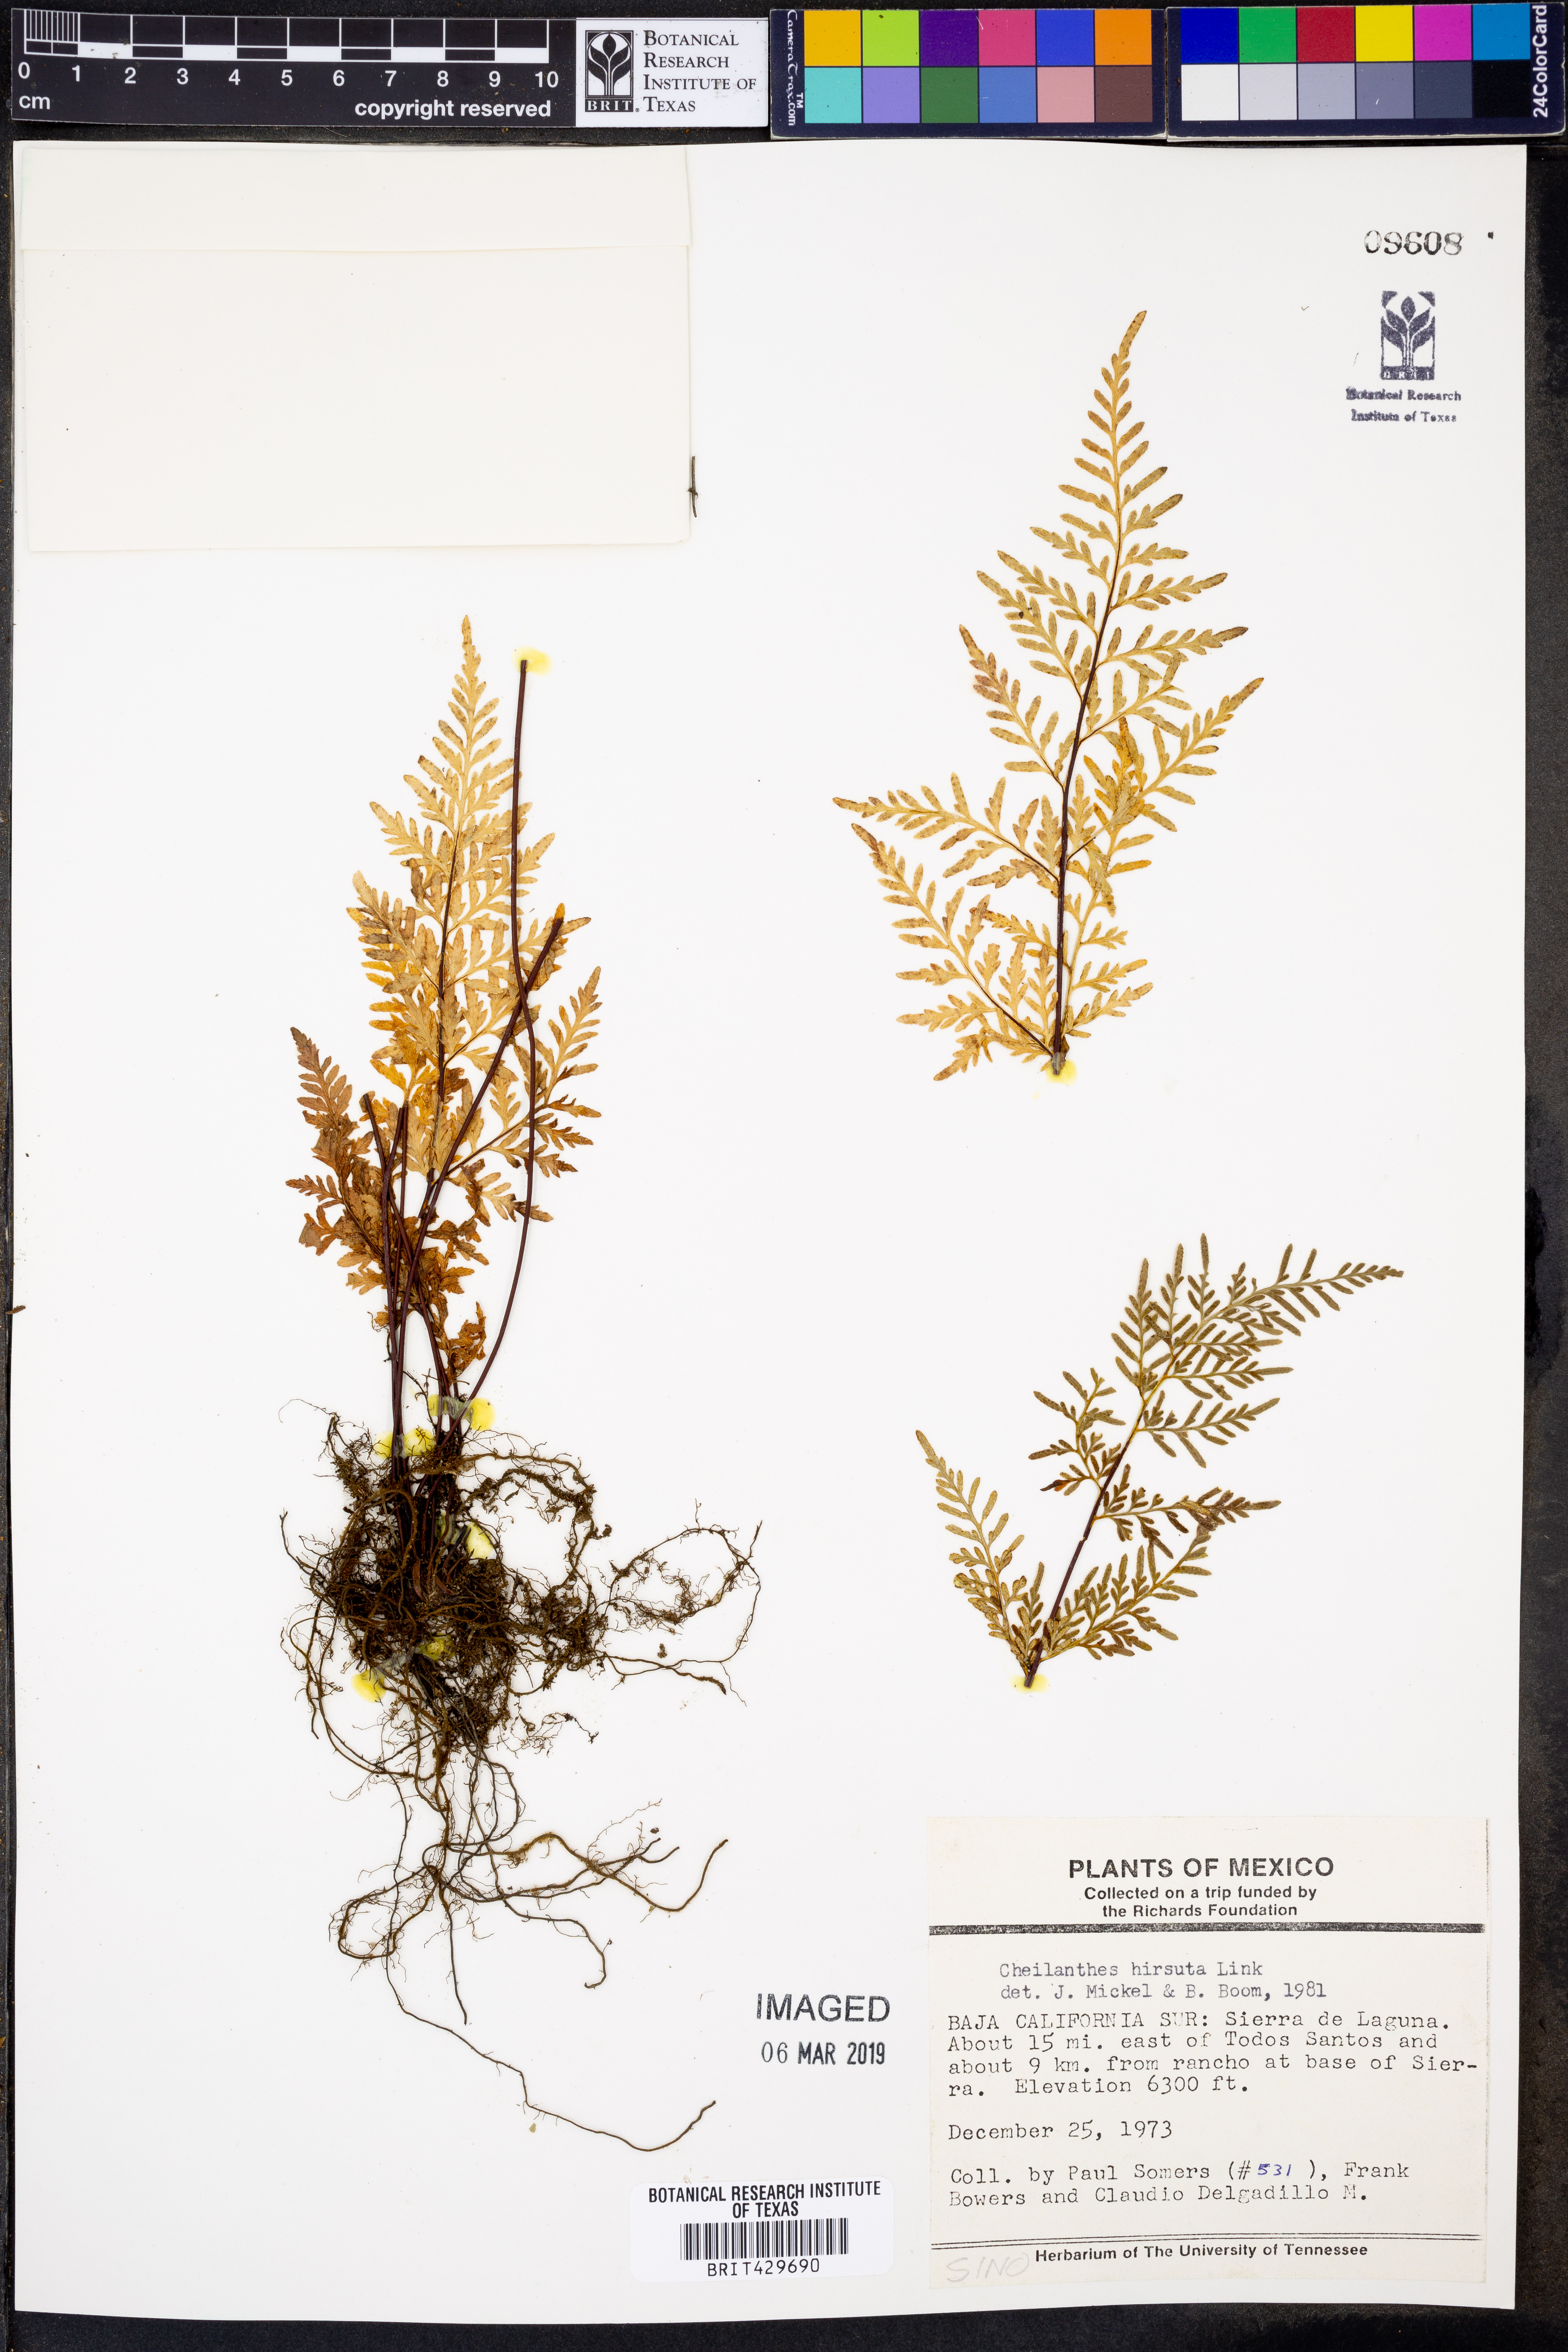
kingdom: Plantae
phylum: Tracheophyta
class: Polypodiopsida
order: Polypodiales
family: Pteridaceae
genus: Cheilanthes
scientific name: Cheilanthes nudiuscula
